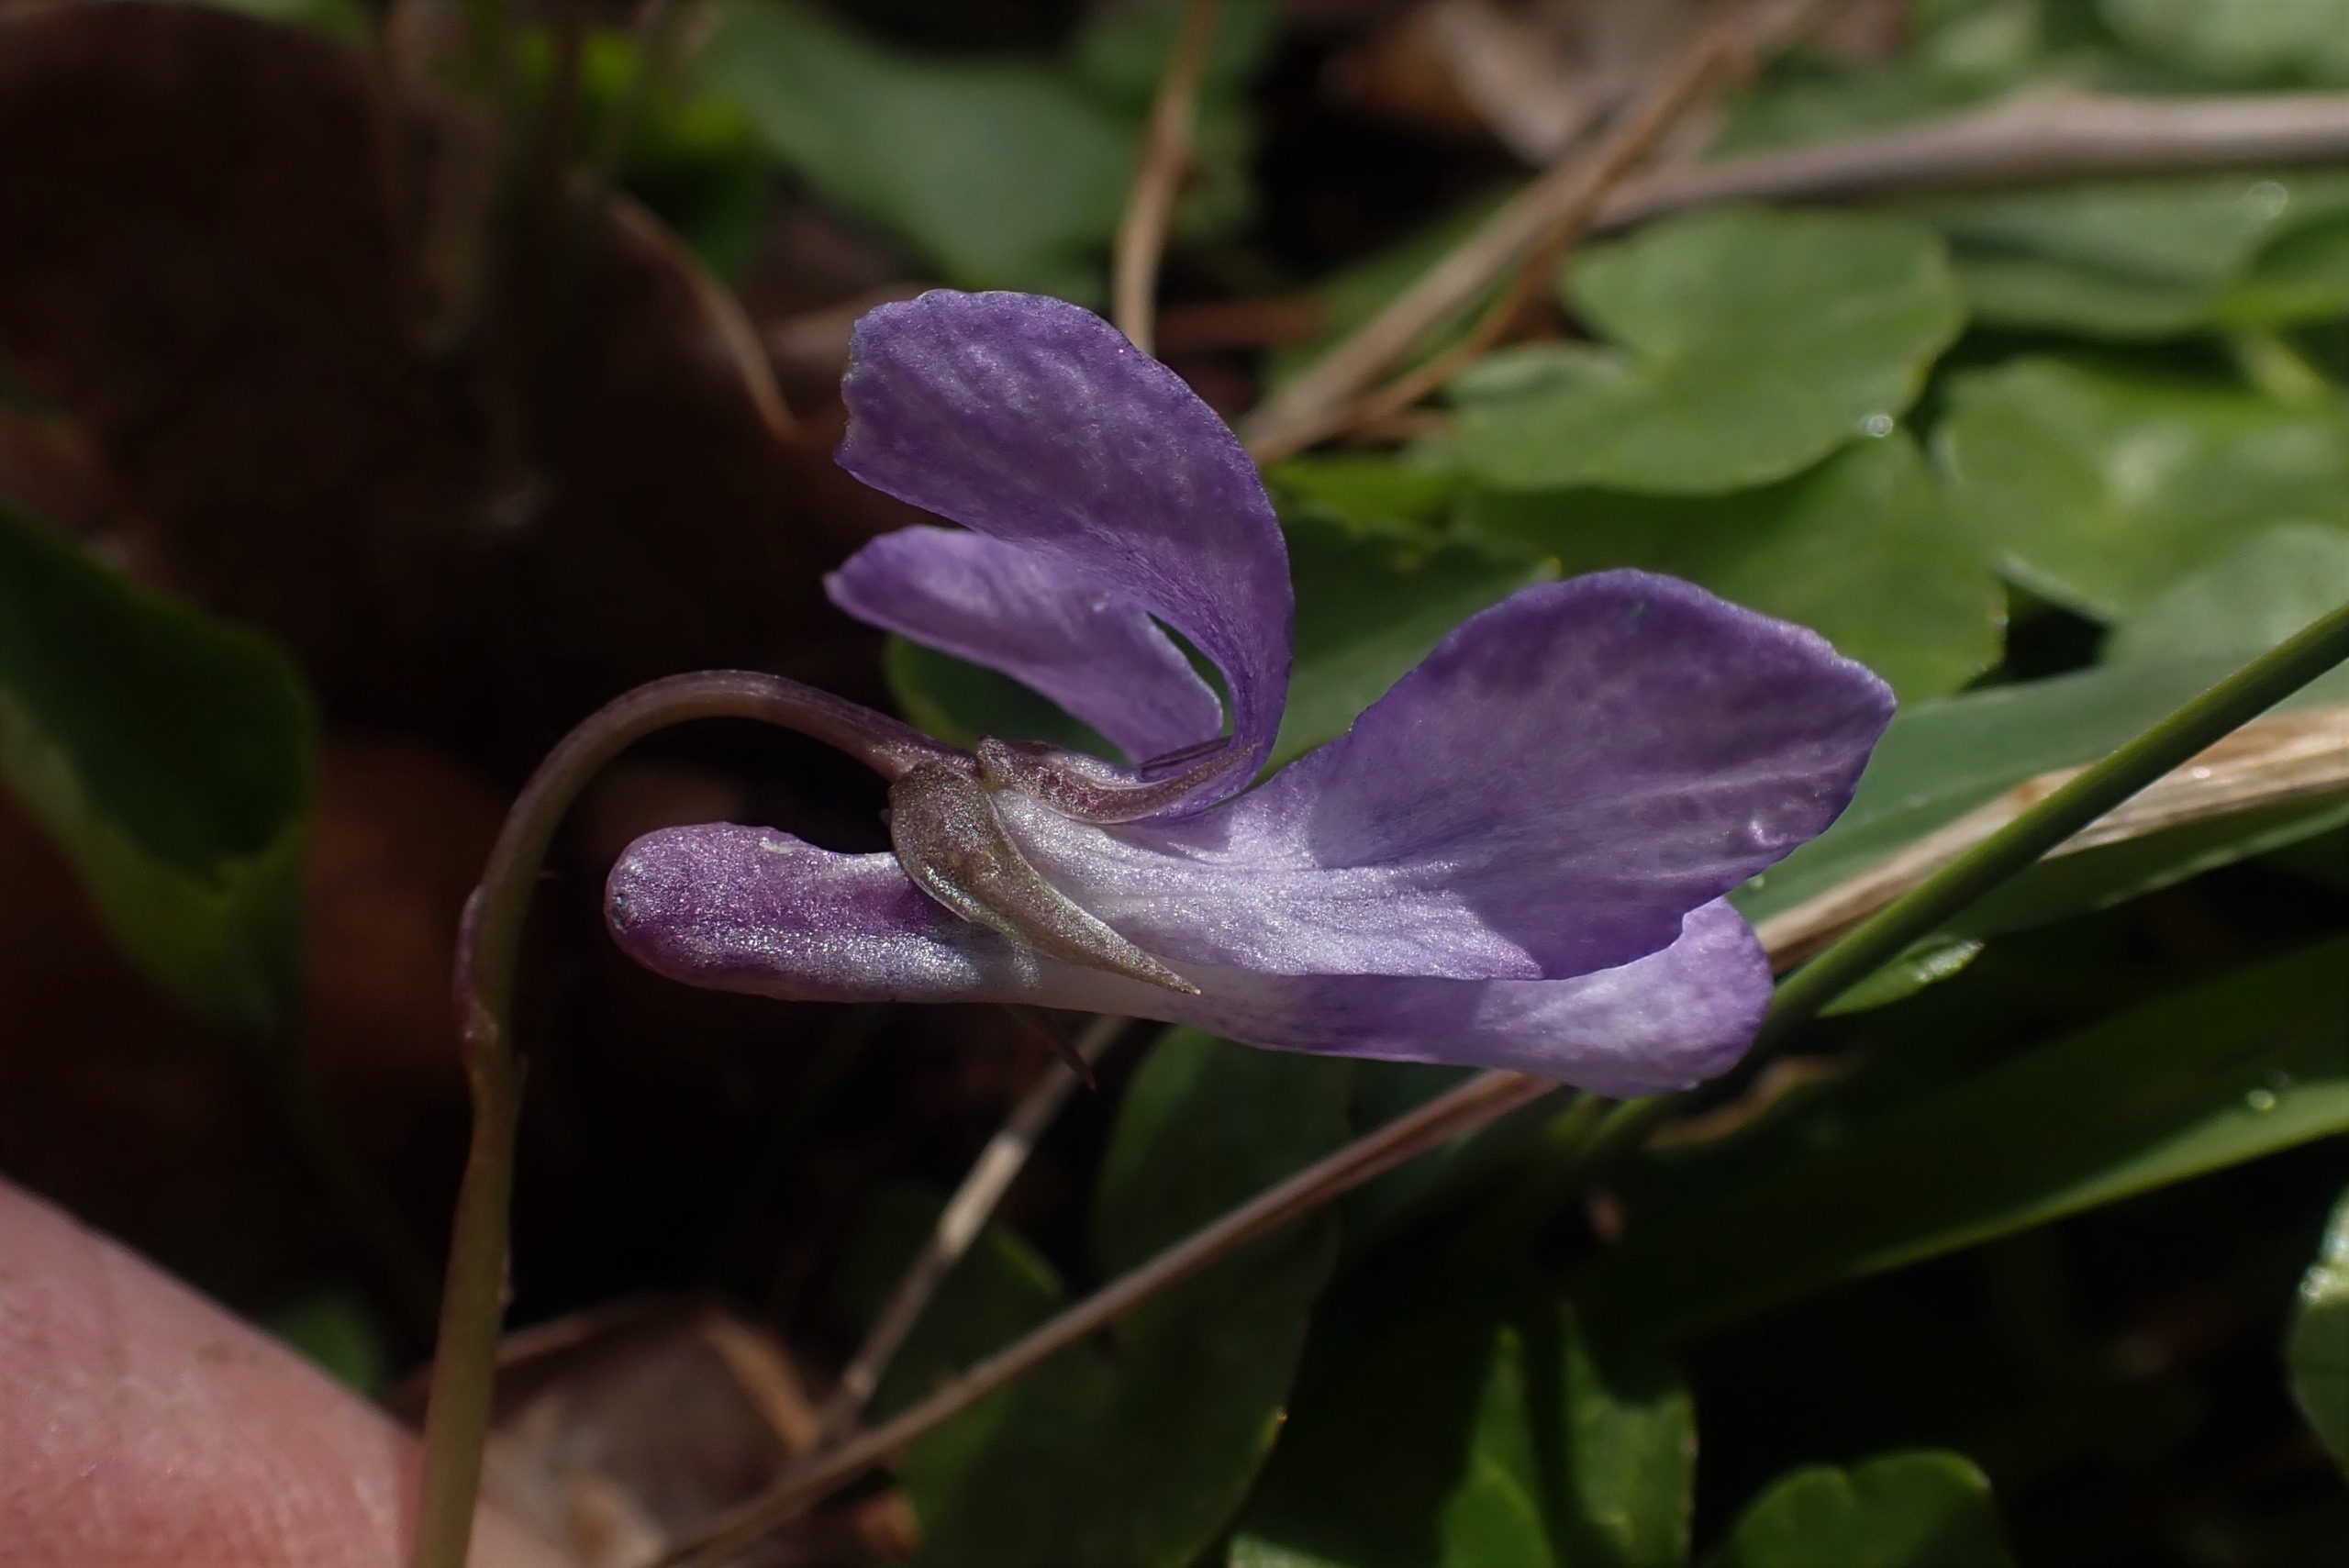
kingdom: Plantae
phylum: Tracheophyta
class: Magnoliopsida
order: Malpighiales
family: Violaceae
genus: Viola
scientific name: Viola reichenbachiana
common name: Skov-viol
